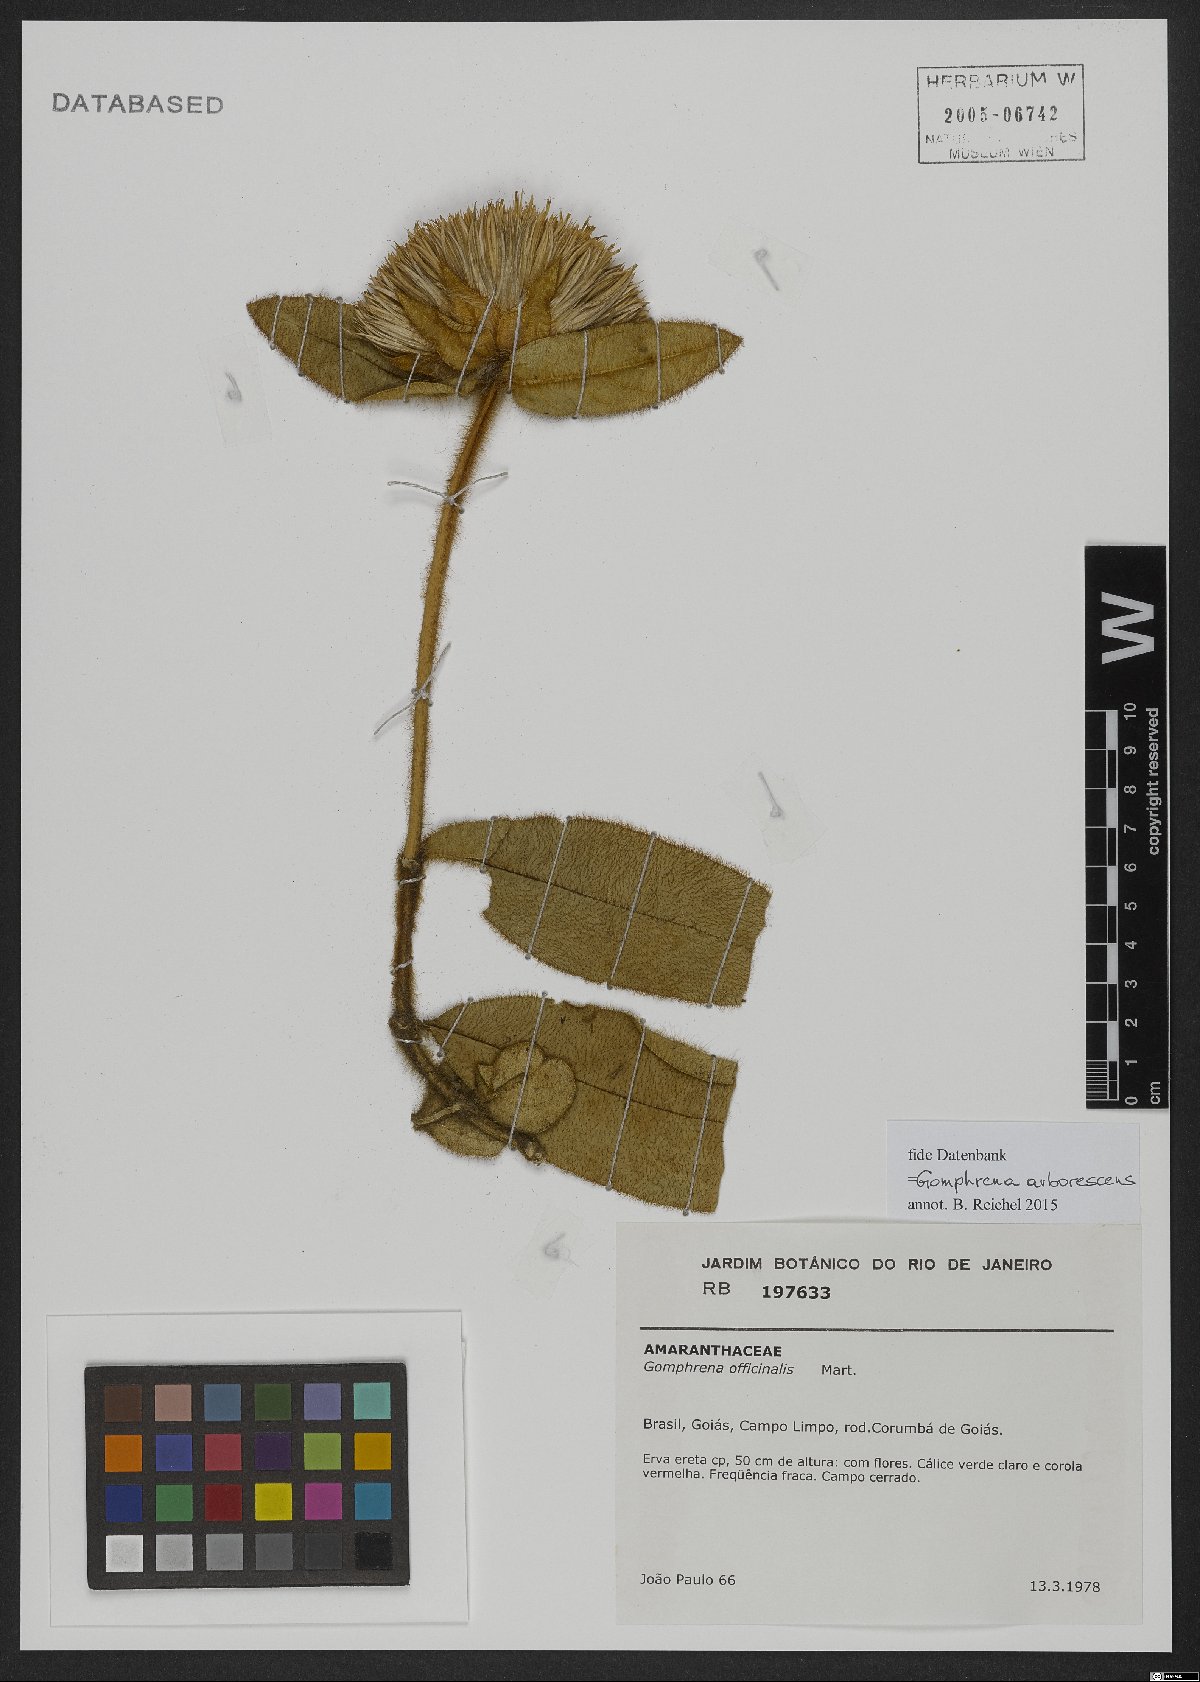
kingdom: Plantae
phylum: Tracheophyta
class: Magnoliopsida
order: Caryophyllales
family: Amaranthaceae
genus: Gomphrena
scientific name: Gomphrena arborescens
